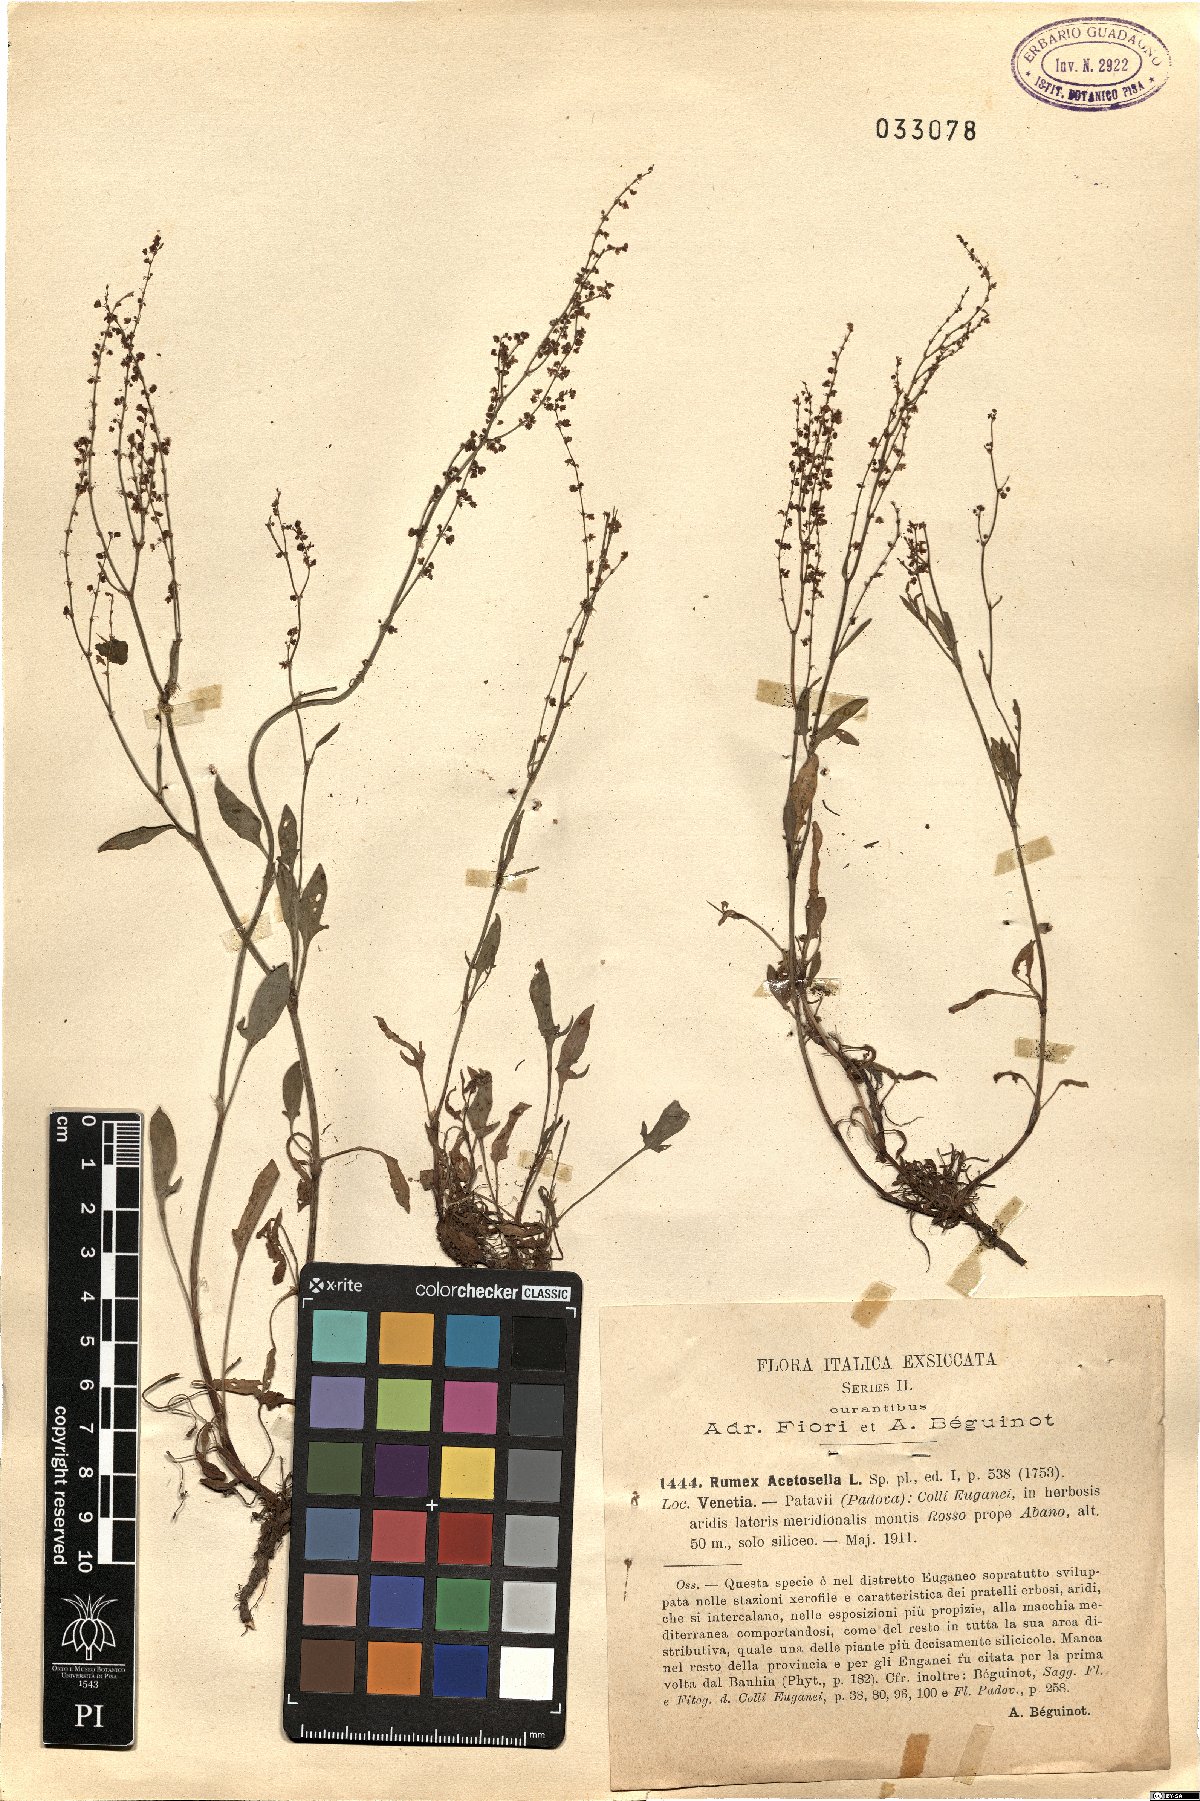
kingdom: Plantae
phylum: Tracheophyta
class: Magnoliopsida
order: Caryophyllales
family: Polygonaceae
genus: Rumex
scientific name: Rumex acetosella
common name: Common sheep sorrel
